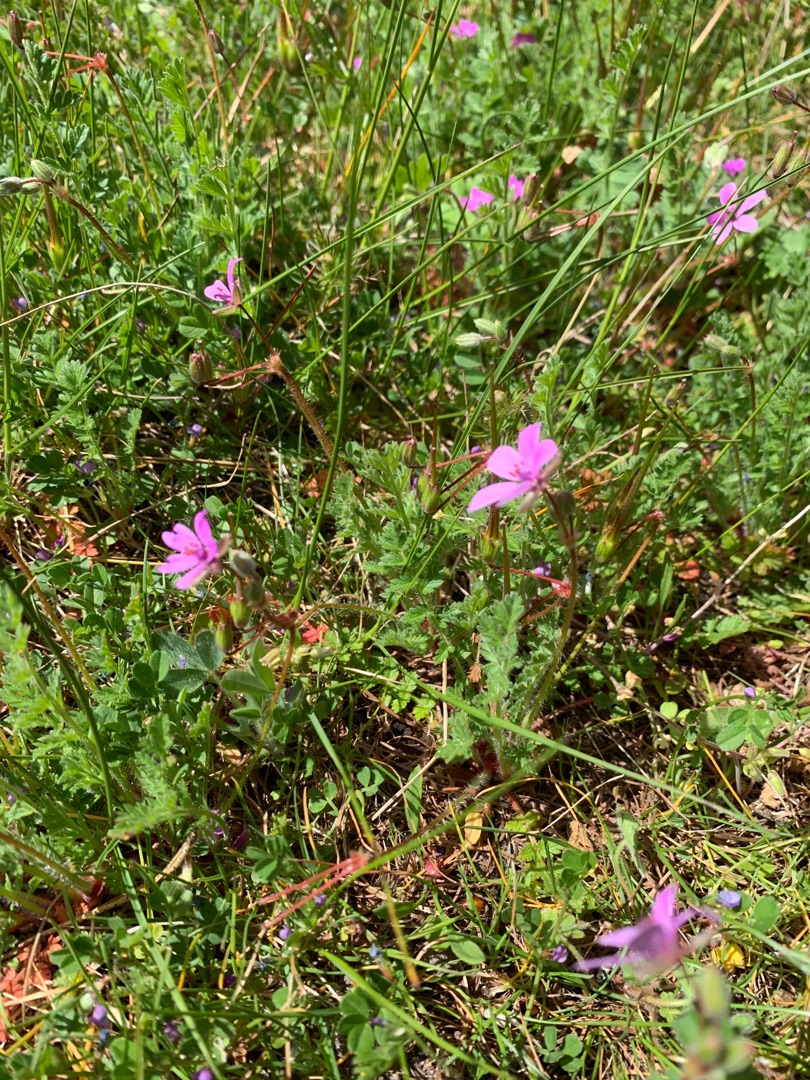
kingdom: Plantae
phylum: Tracheophyta
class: Magnoliopsida
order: Geraniales
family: Geraniaceae
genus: Erodium
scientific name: Erodium cicutarium
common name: Hejrenæb
